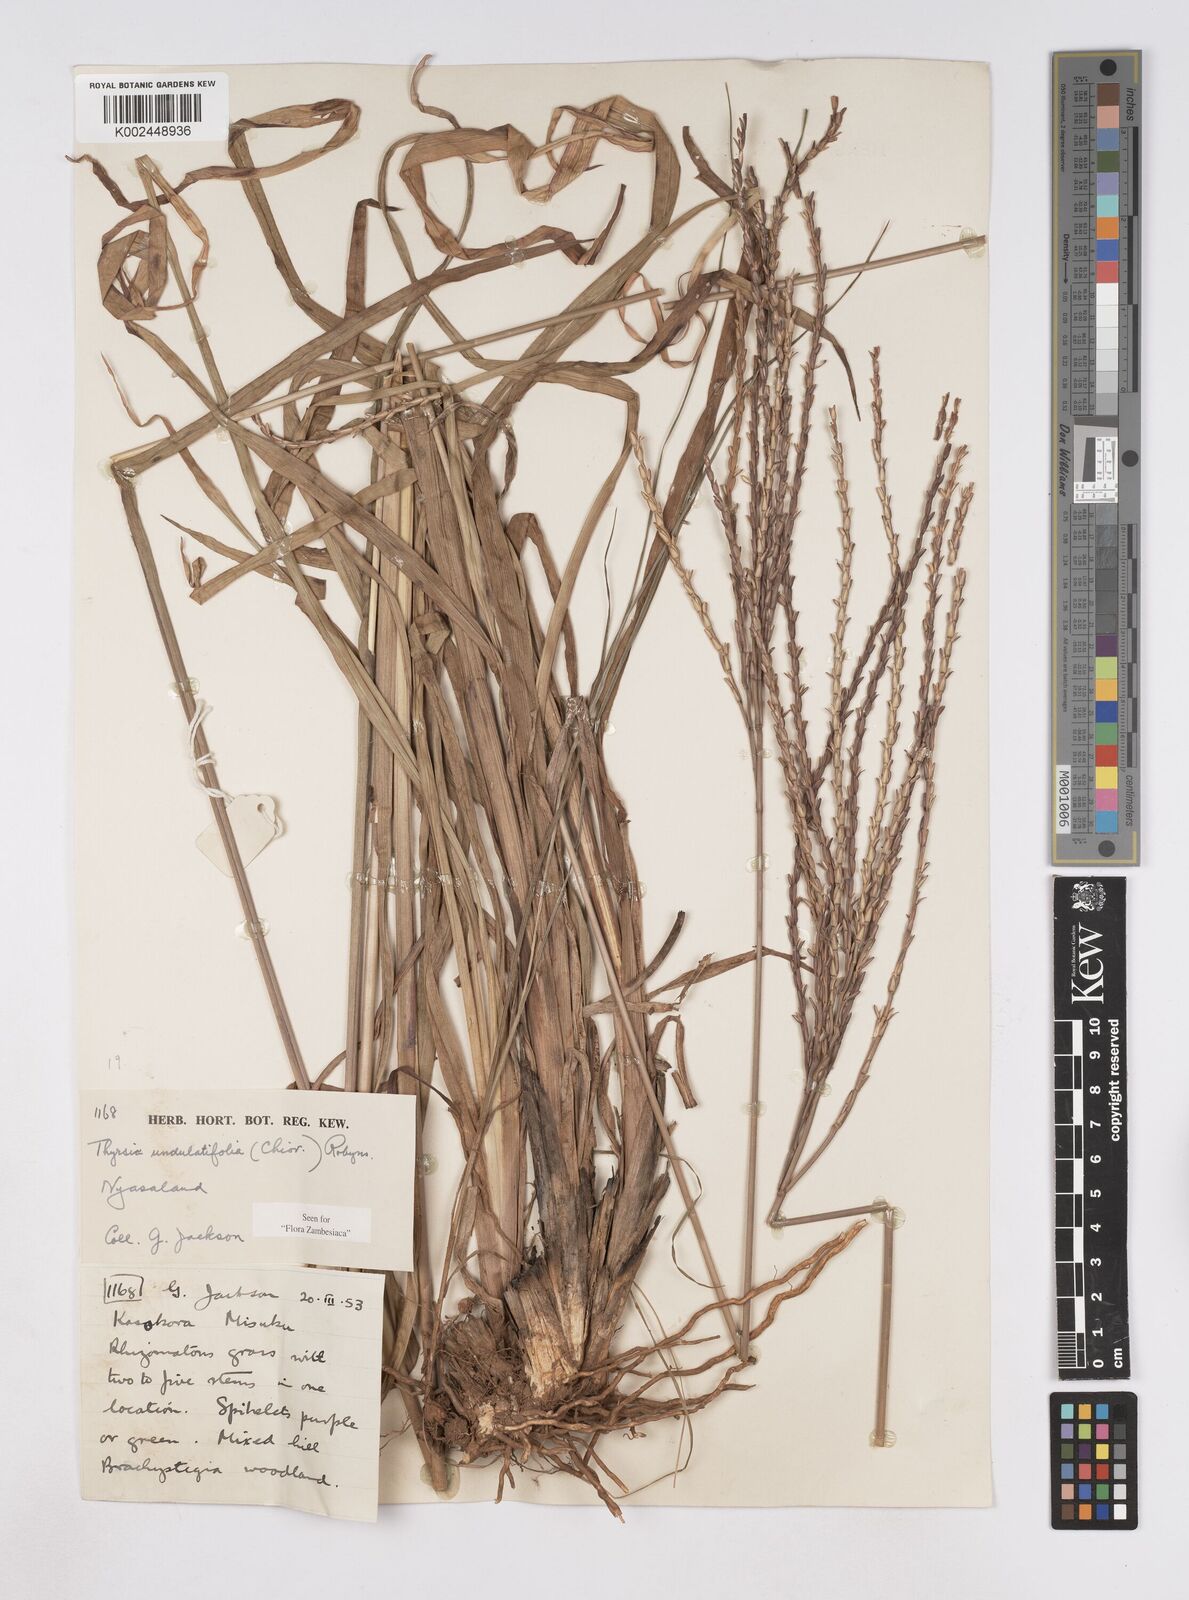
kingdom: Plantae
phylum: Tracheophyta
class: Liliopsida
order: Poales
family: Poaceae
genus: Thyrsia
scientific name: Thyrsia huillensis
